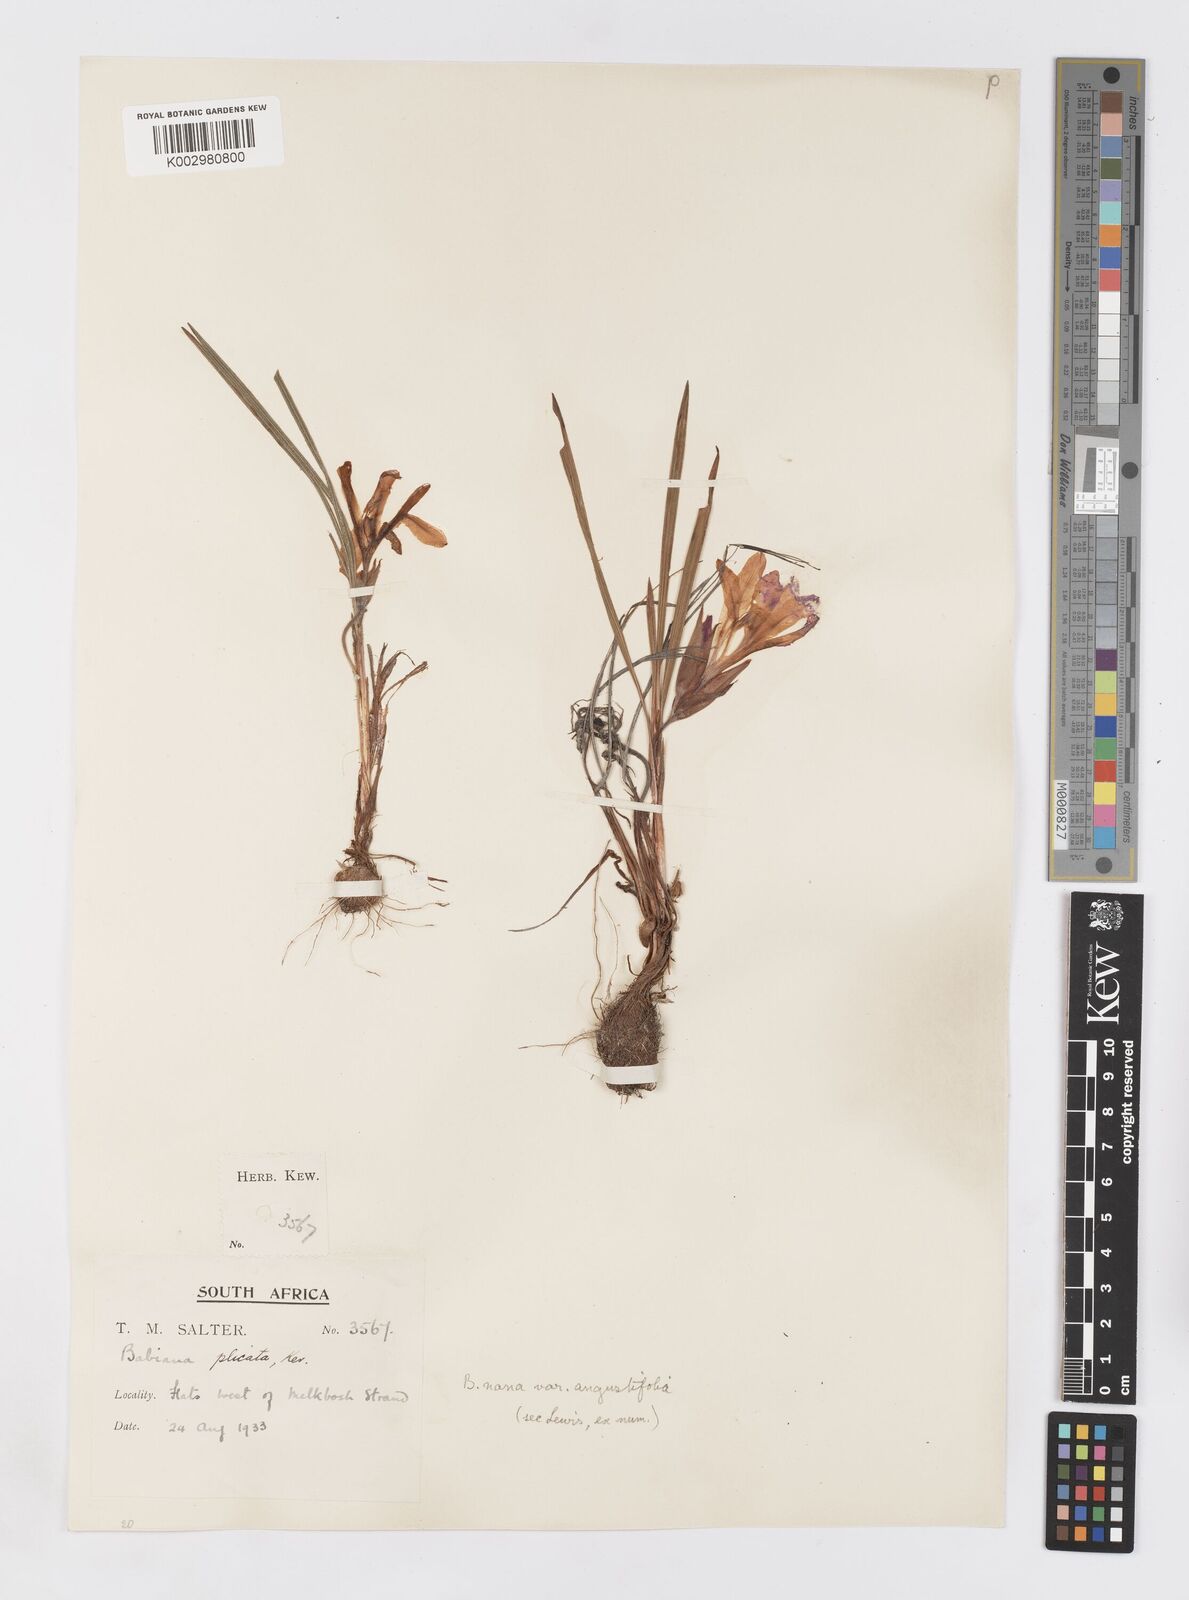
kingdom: Plantae
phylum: Tracheophyta
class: Liliopsida
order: Asparagales
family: Iridaceae
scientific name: Iridaceae
